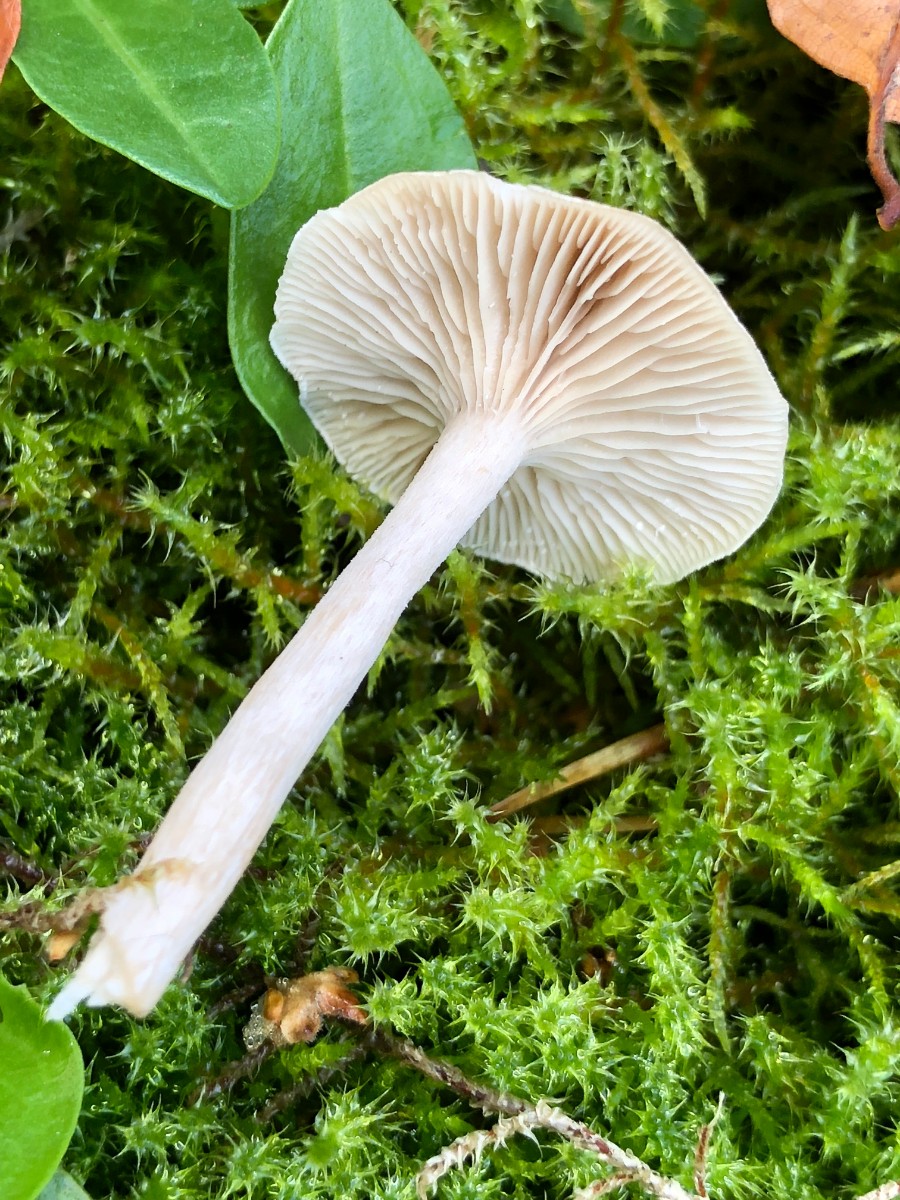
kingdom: Fungi
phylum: Basidiomycota
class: Agaricomycetes
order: Agaricales
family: Tricholomataceae
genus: Clitocybe
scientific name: Clitocybe fragrans
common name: vellugtende tragthat
